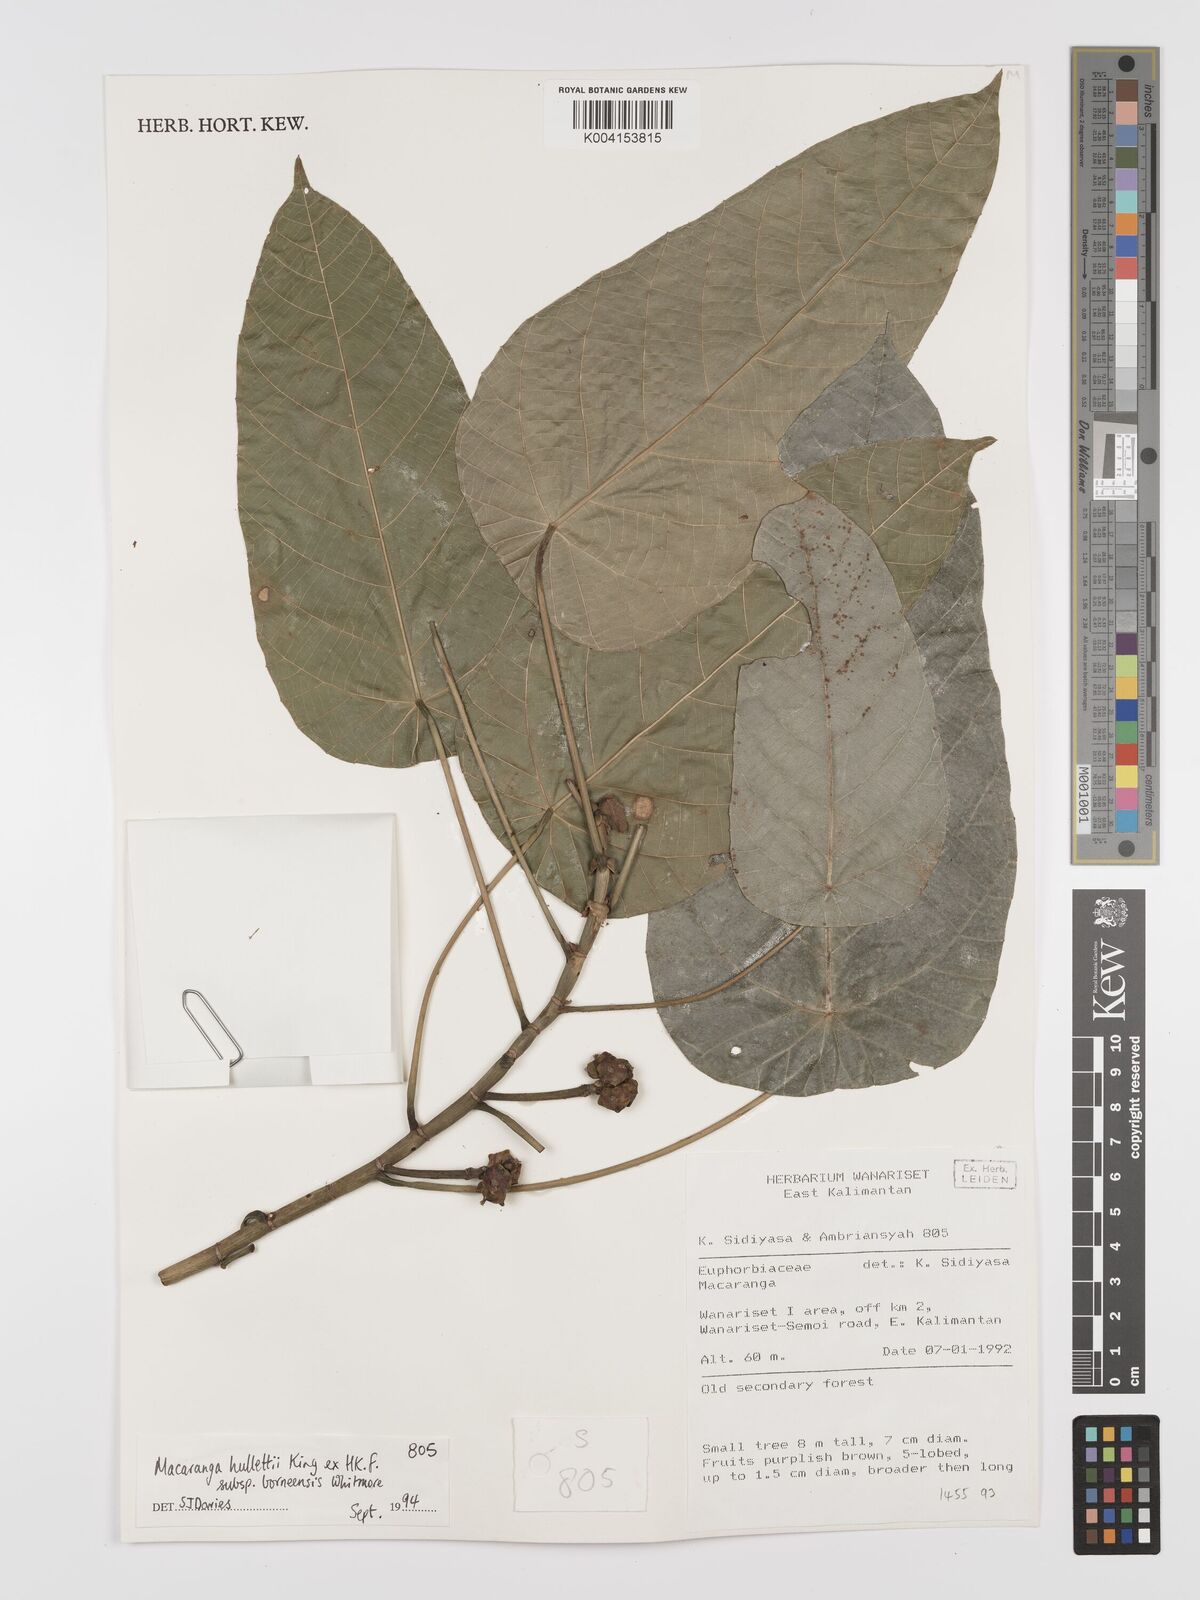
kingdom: Plantae
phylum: Tracheophyta
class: Magnoliopsida
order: Malpighiales
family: Euphorbiaceae
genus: Macaranga
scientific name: Macaranga hullettii
